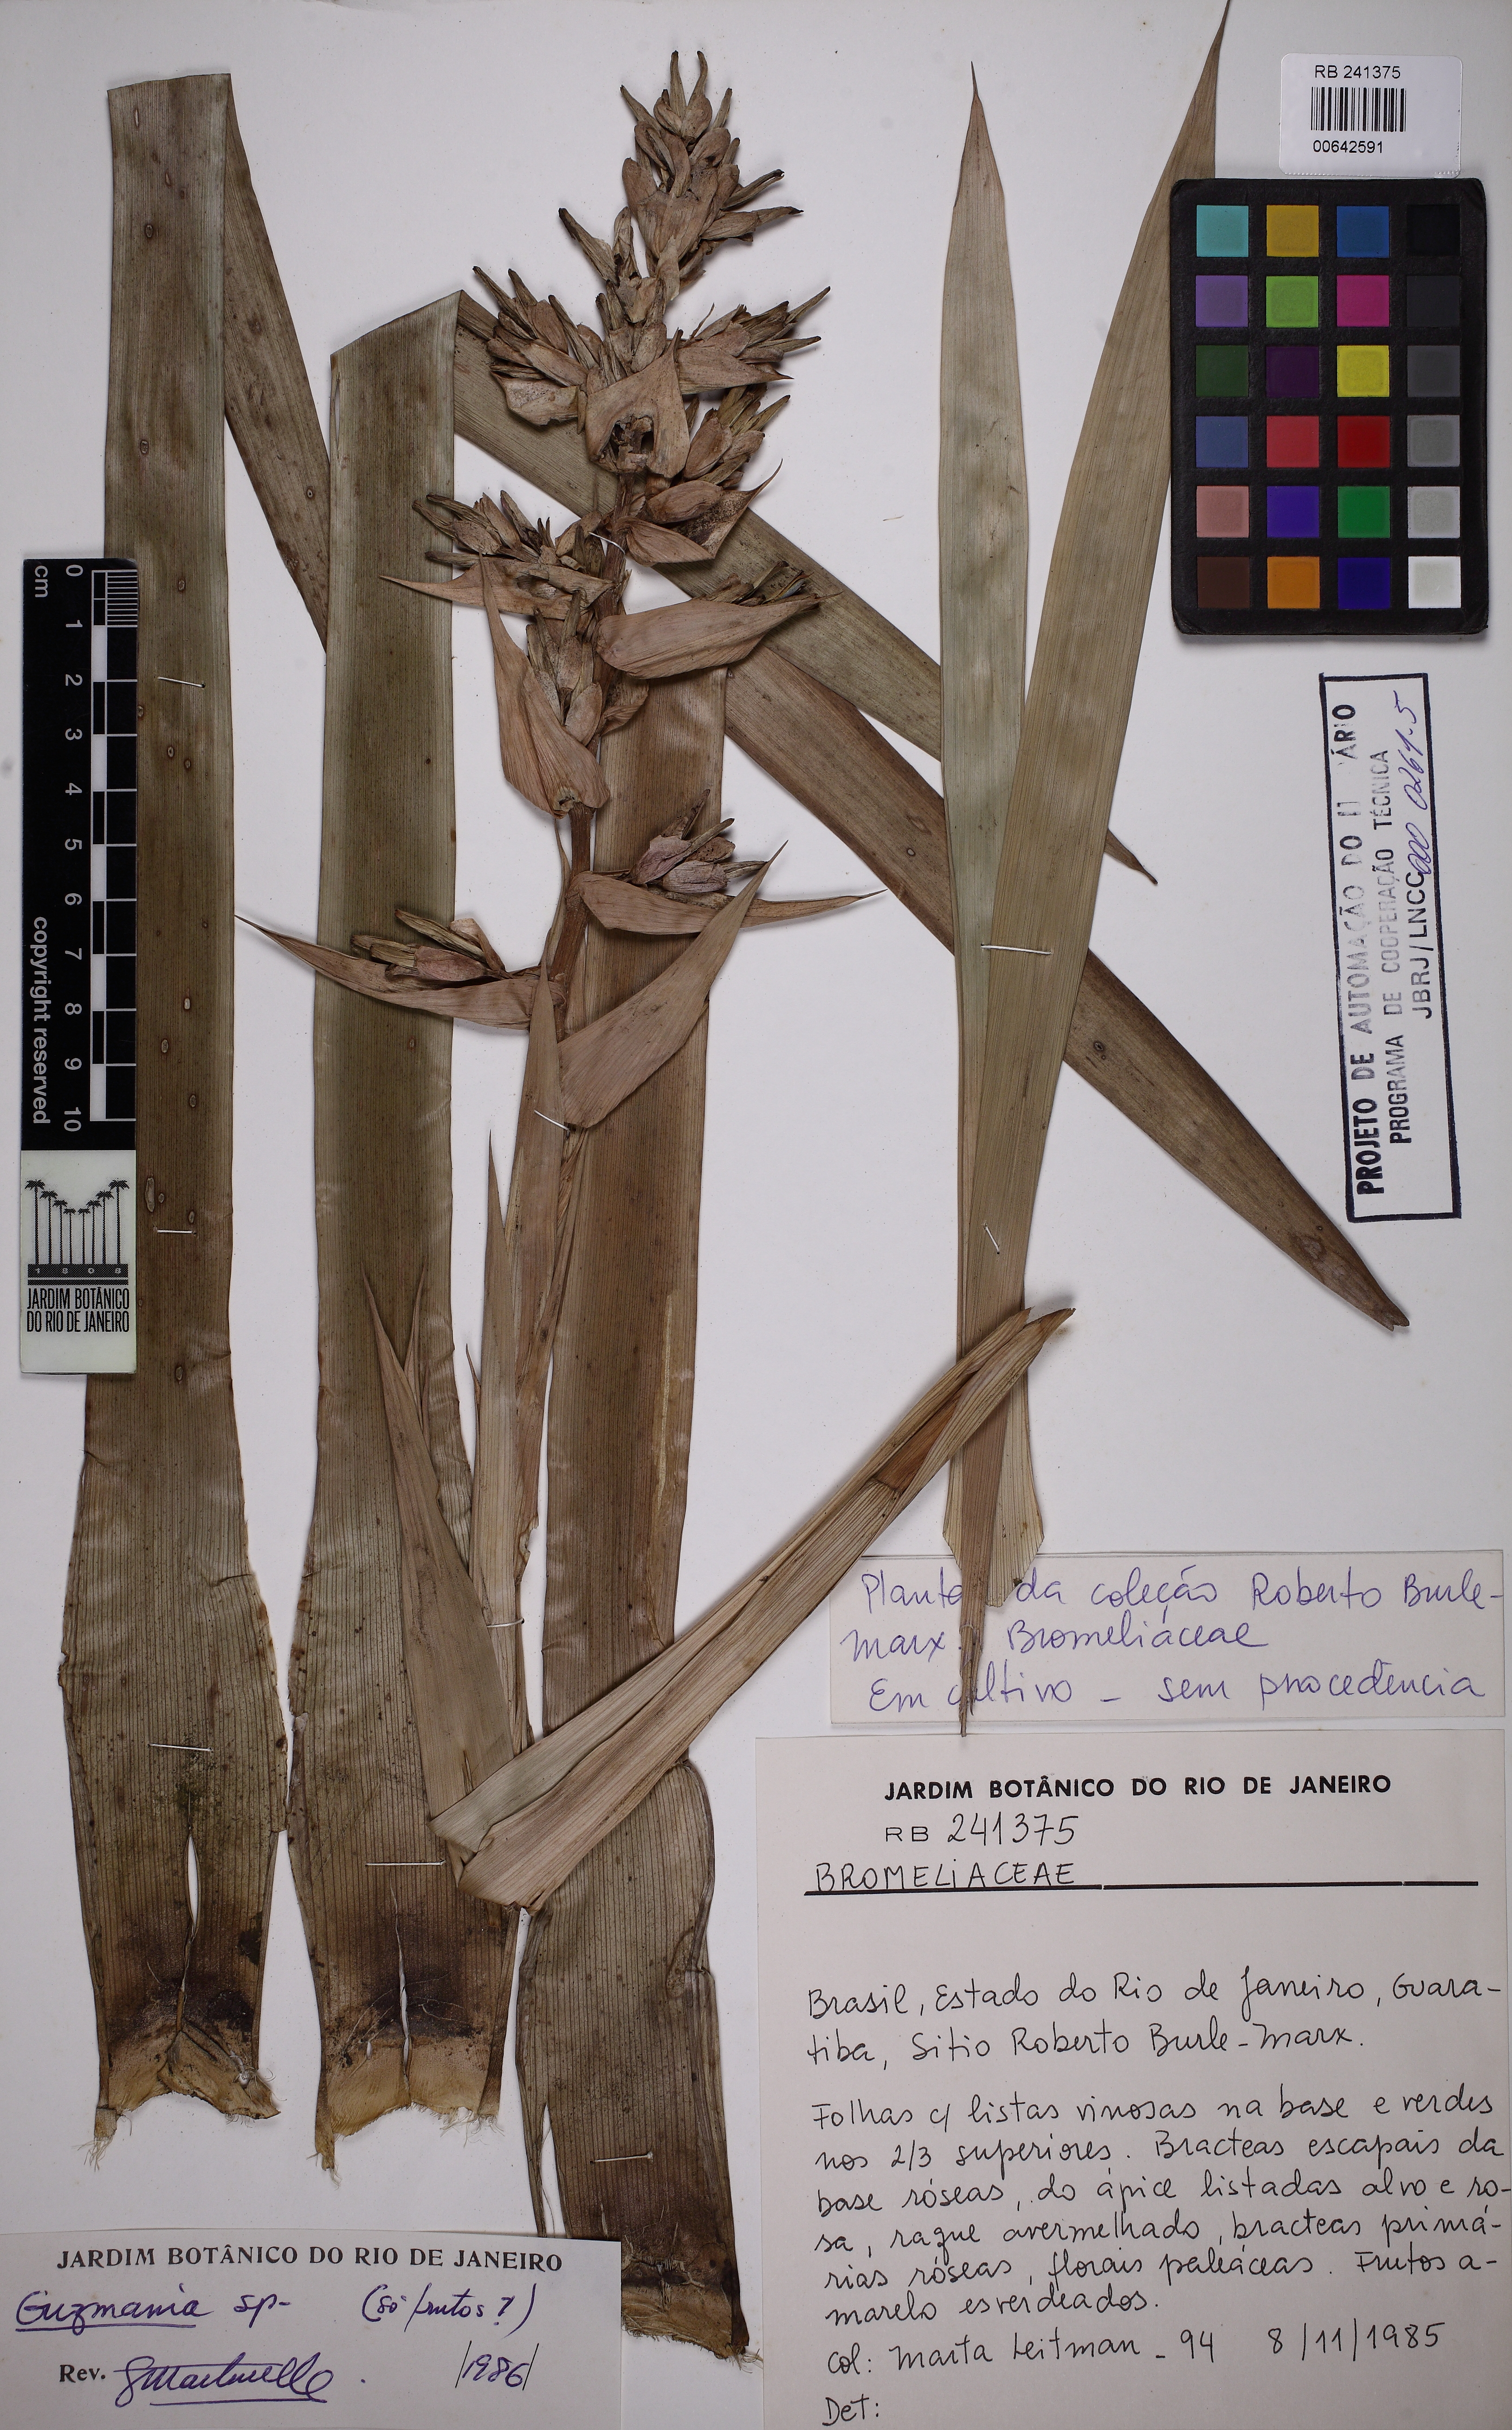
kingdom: Plantae
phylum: Tracheophyta
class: Liliopsida
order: Poales
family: Bromeliaceae
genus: Guzmania
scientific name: Guzmania
